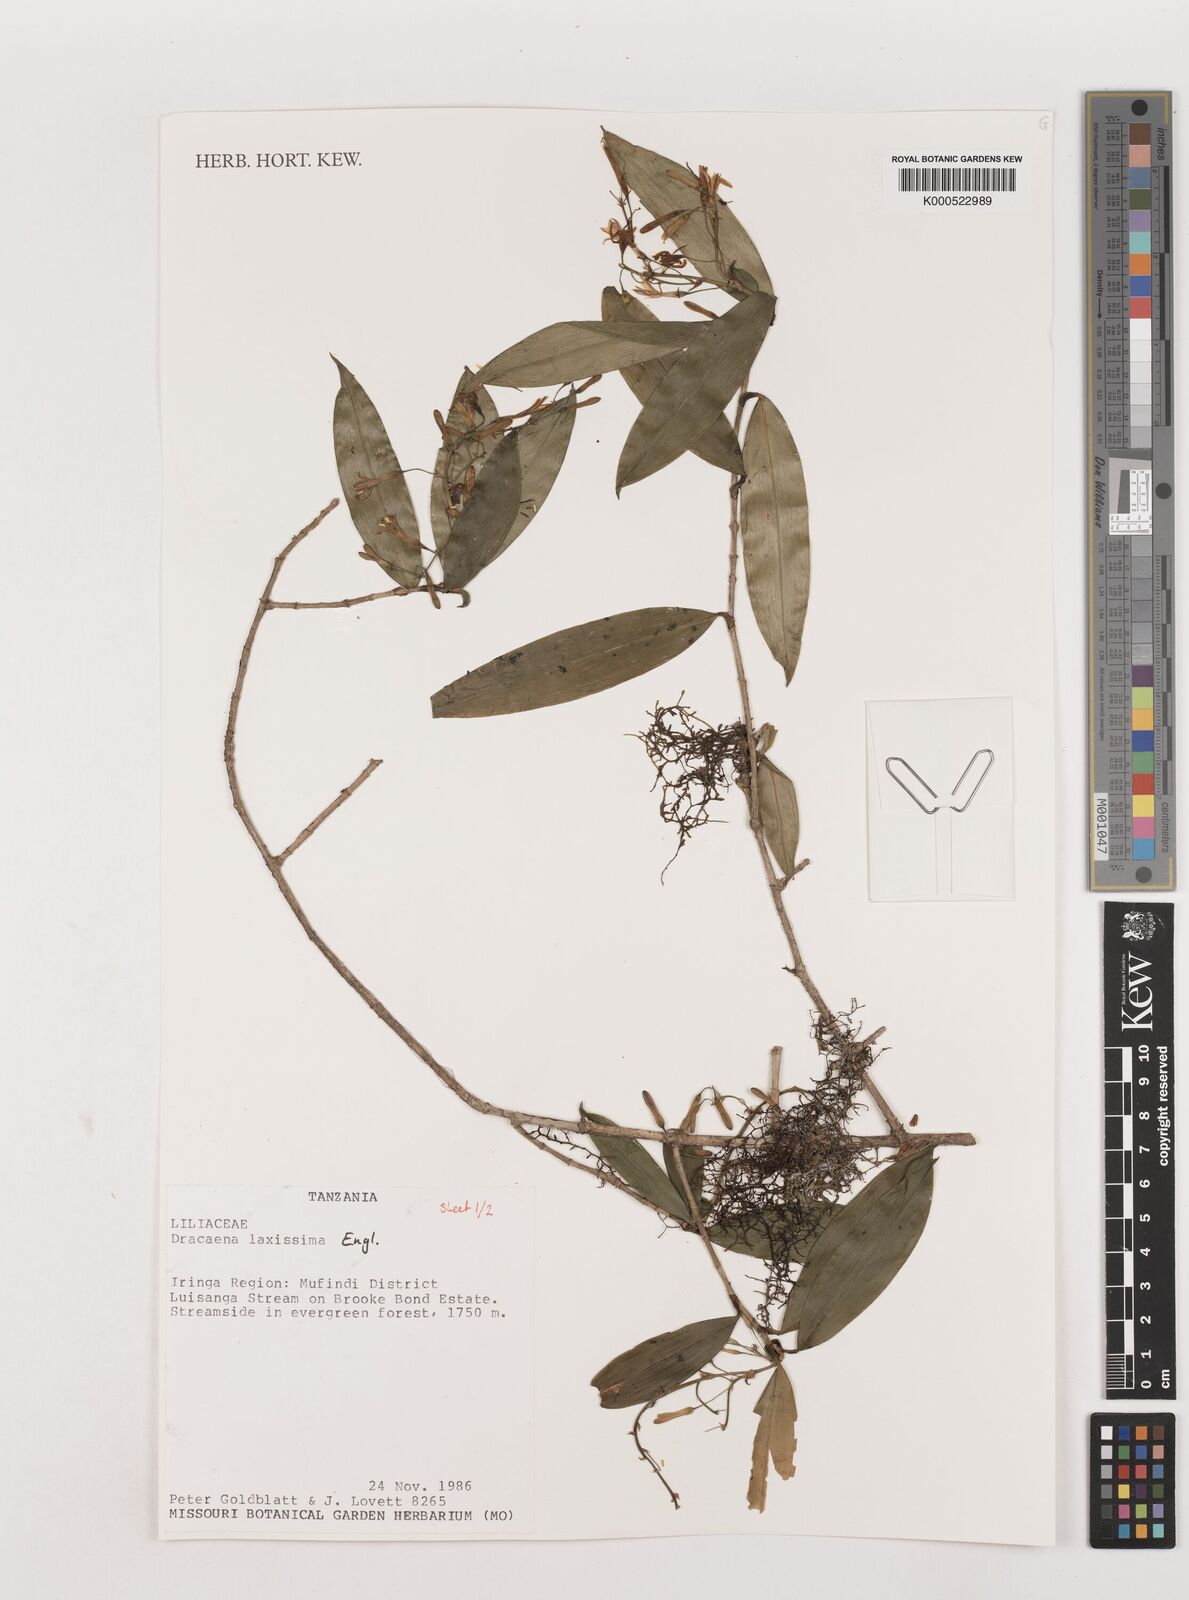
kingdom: Plantae
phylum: Tracheophyta
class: Liliopsida
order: Asparagales
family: Asparagaceae
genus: Dracaena
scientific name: Dracaena laxissima
